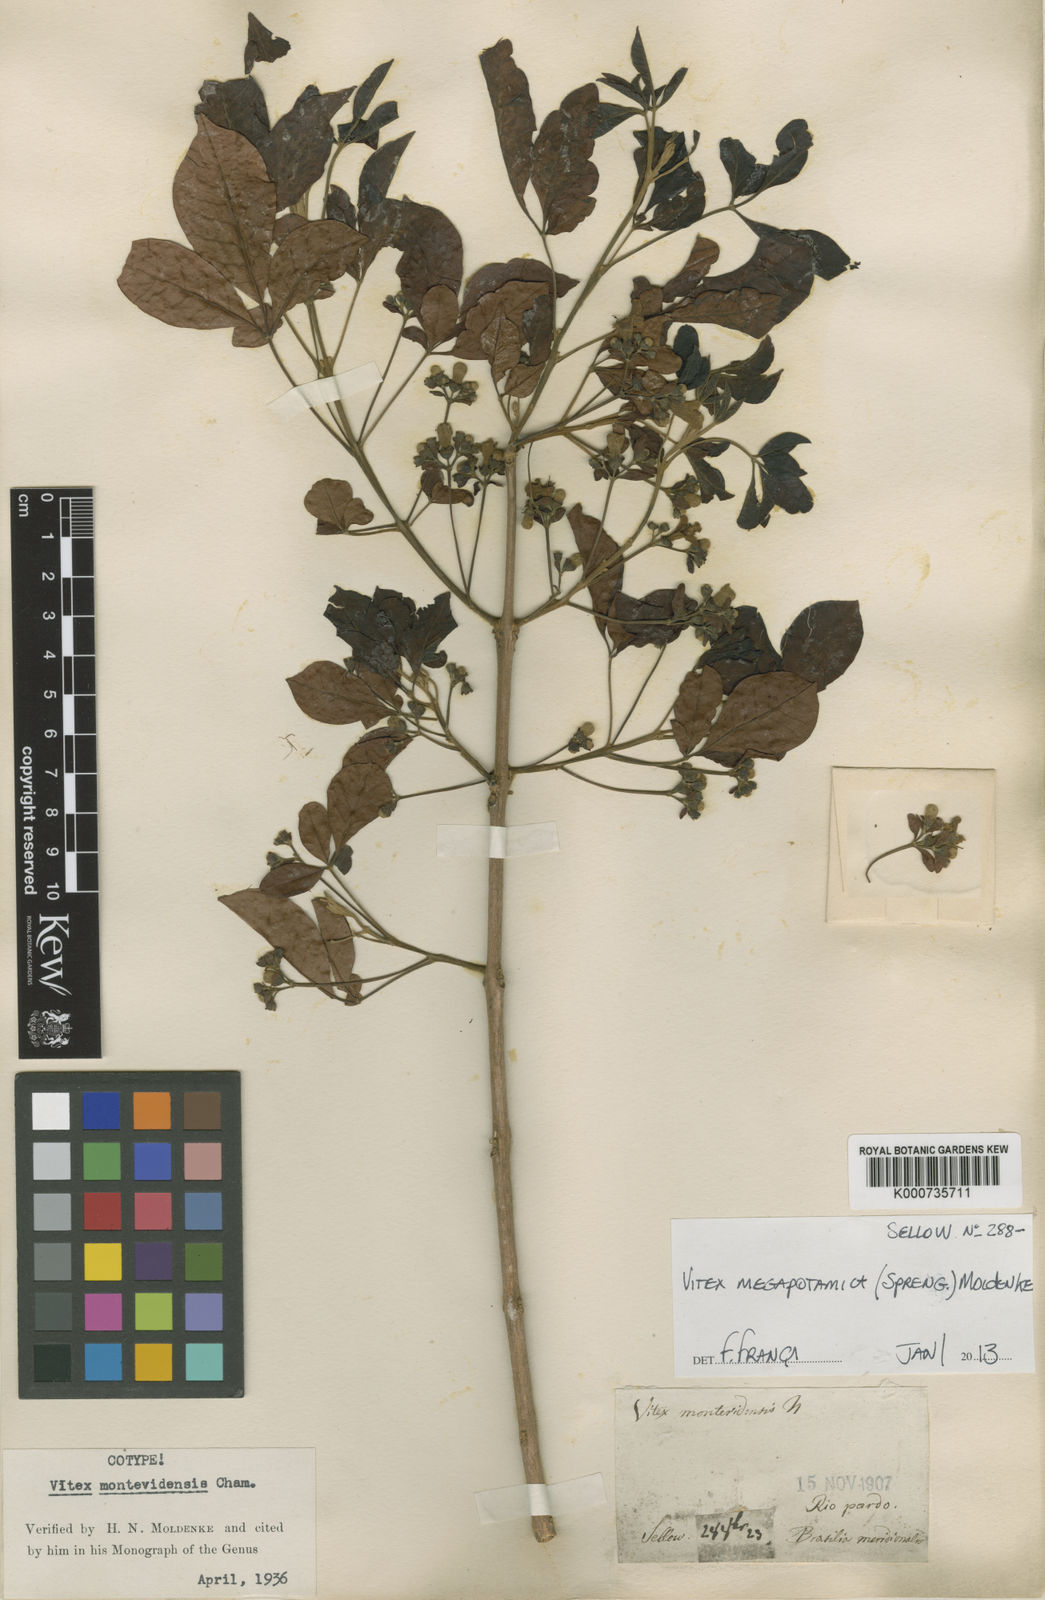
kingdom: Plantae
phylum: Tracheophyta
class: Magnoliopsida
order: Lamiales
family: Lamiaceae
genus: Vitex
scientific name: Vitex megapotamica
